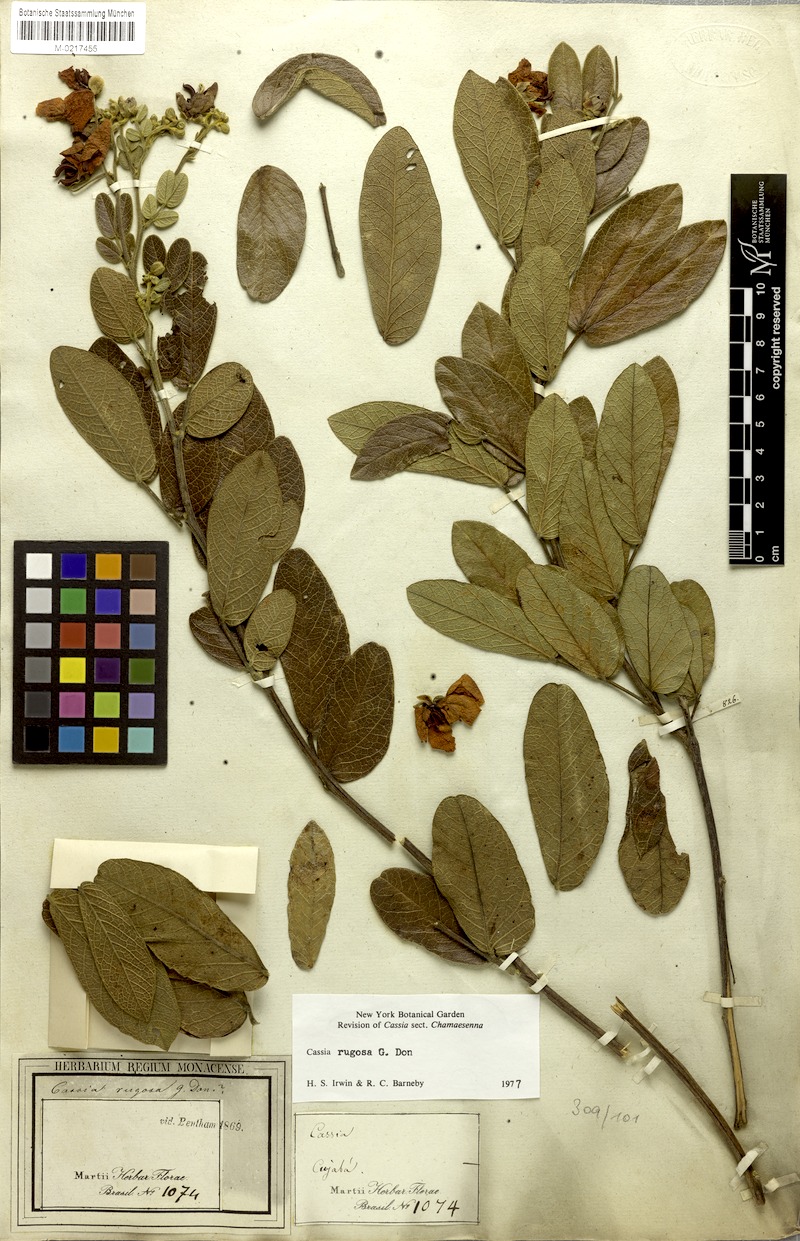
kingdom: Plantae
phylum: Tracheophyta
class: Magnoliopsida
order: Fabales
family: Fabaceae
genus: Senna
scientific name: Senna rugosa
